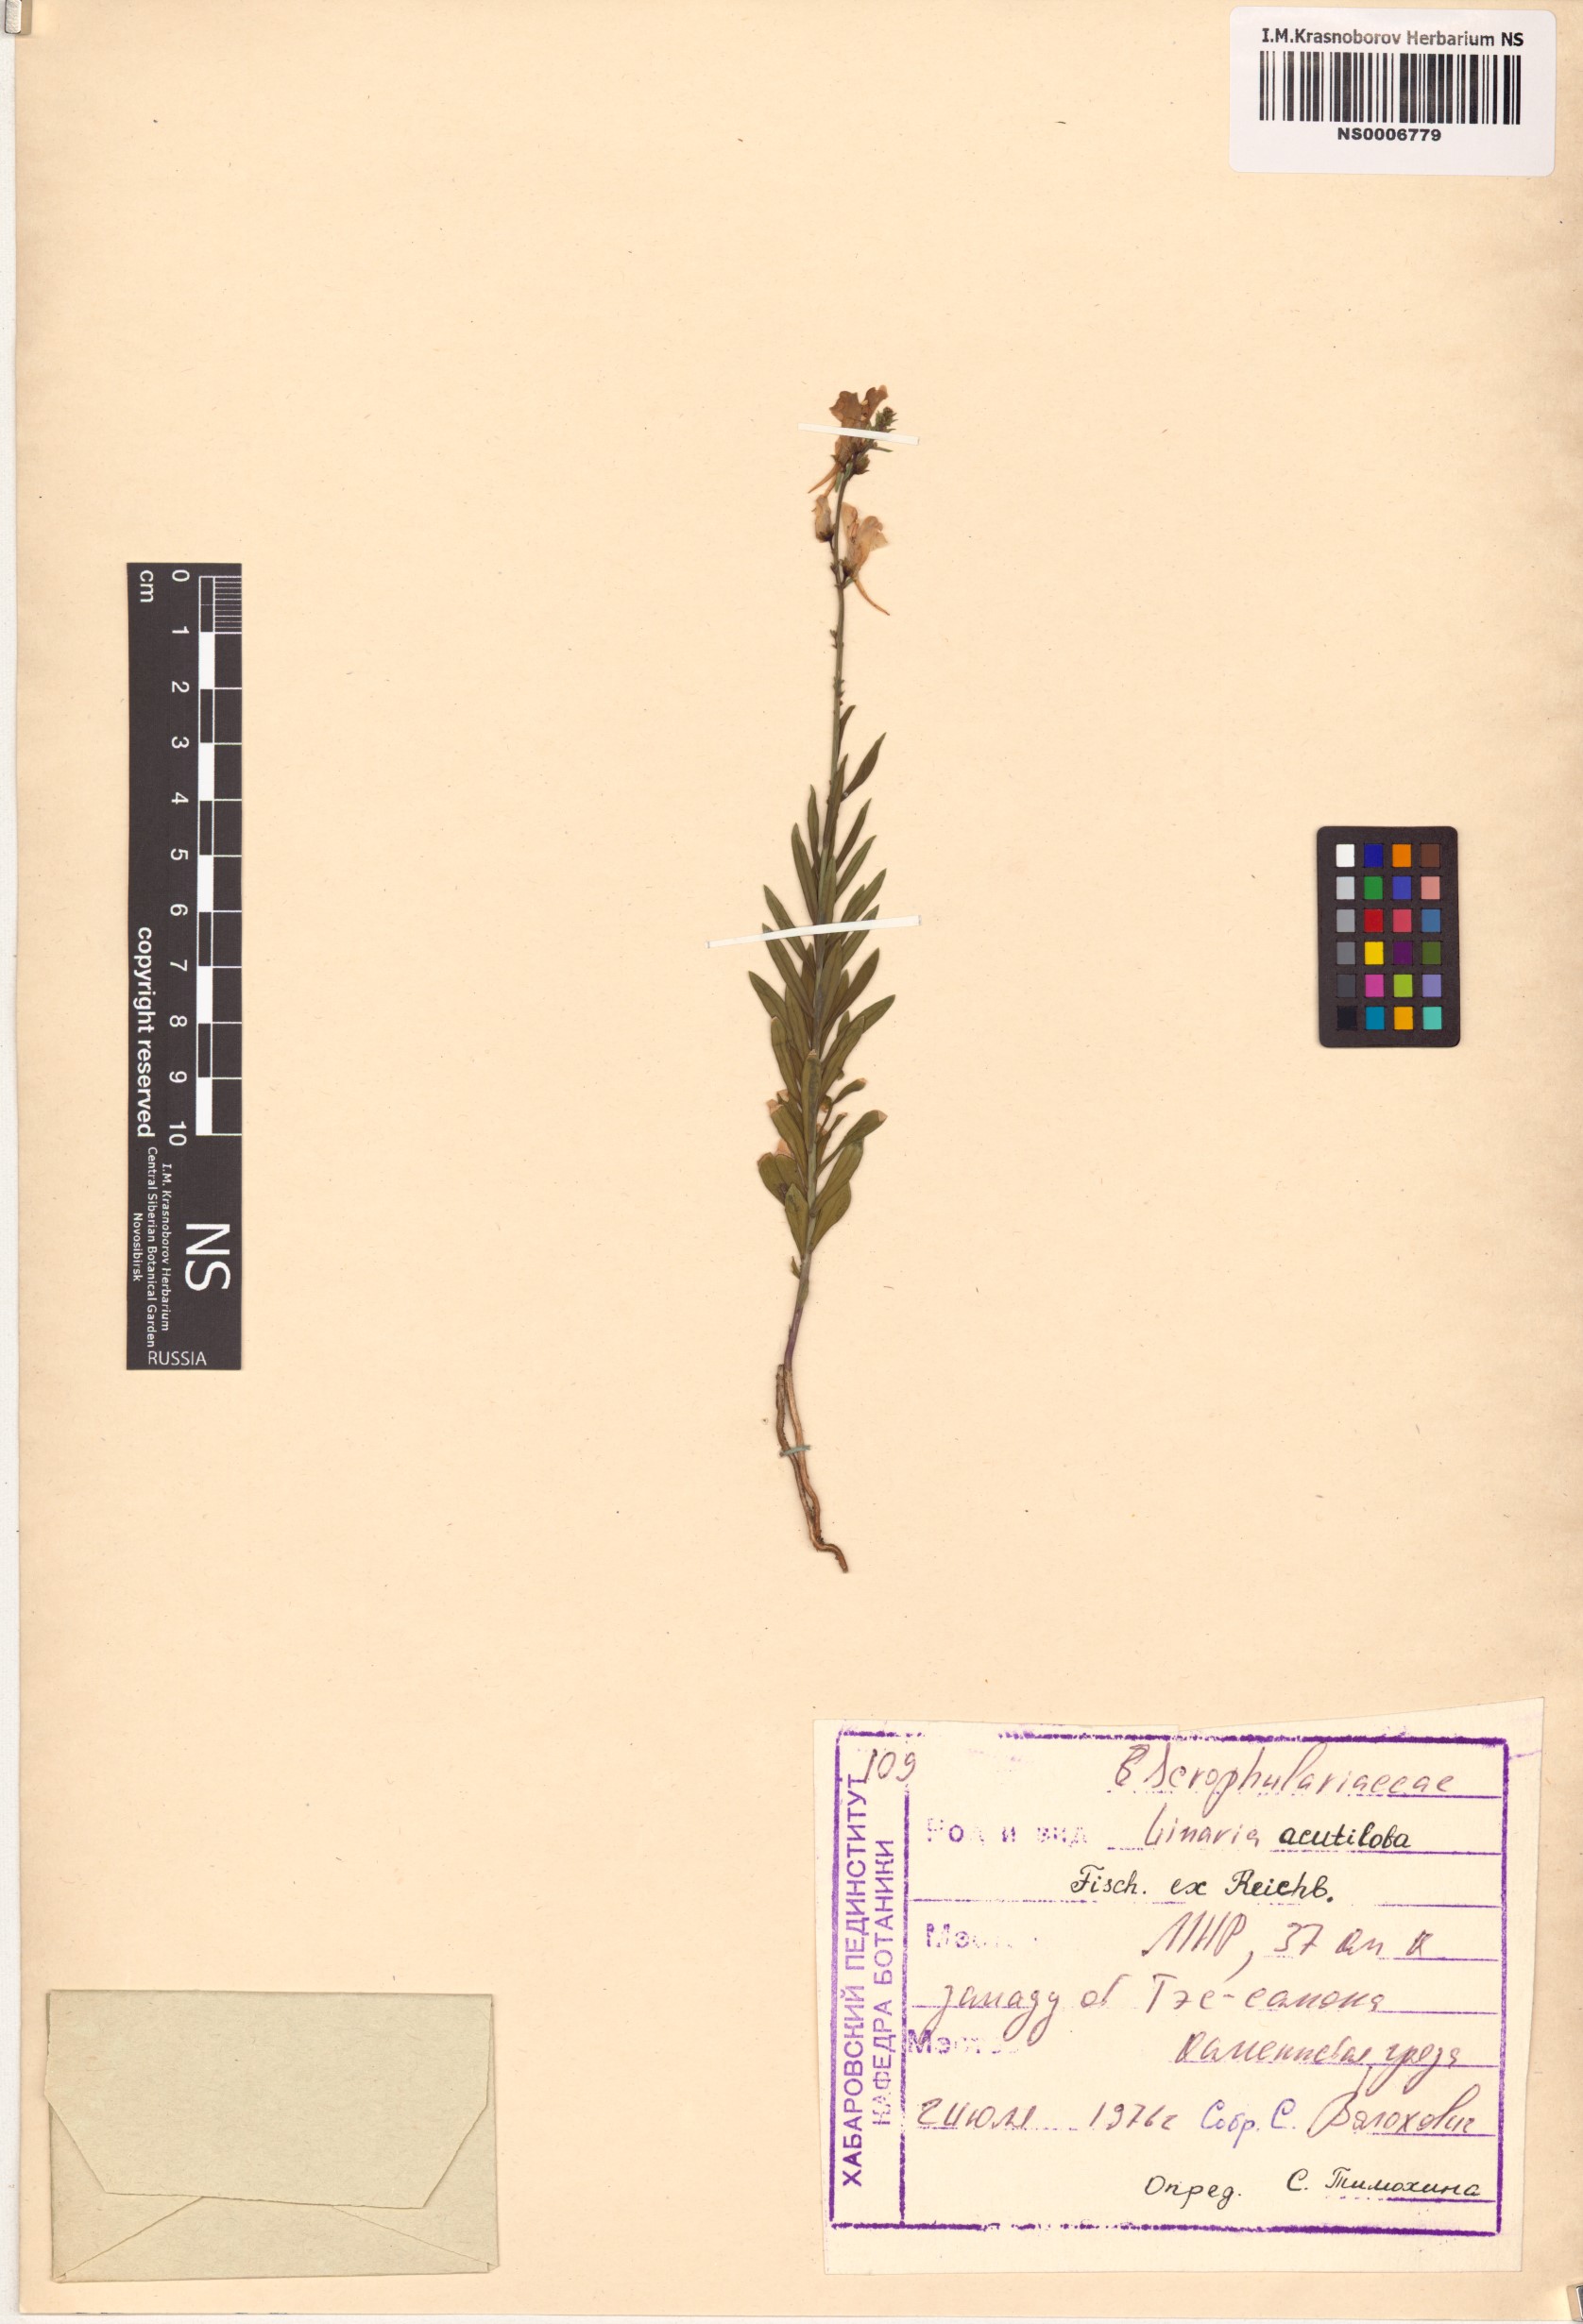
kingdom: Plantae
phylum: Tracheophyta
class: Magnoliopsida
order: Lamiales
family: Plantaginaceae
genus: Linaria
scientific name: Linaria acutiloba
